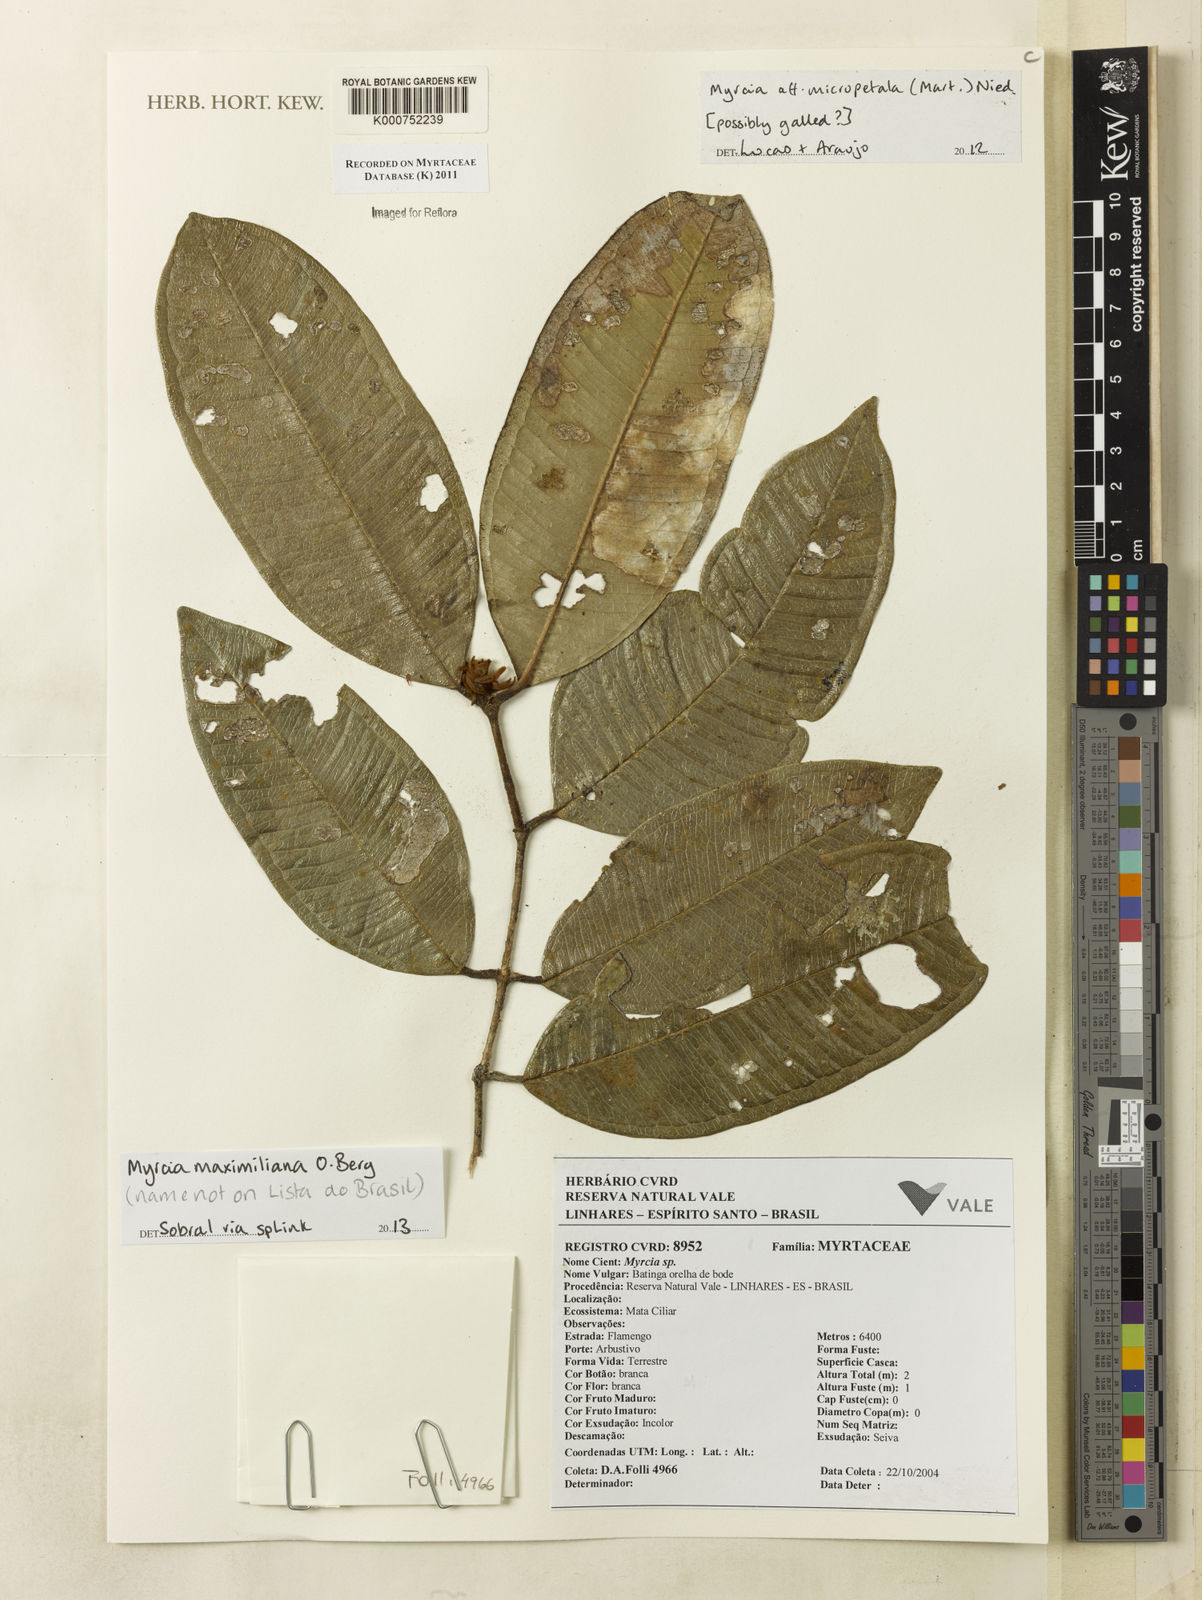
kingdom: Plantae
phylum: Tracheophyta
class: Magnoliopsida
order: Myrtales
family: Myrtaceae
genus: Myrcia
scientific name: Myrcia maximiliana
